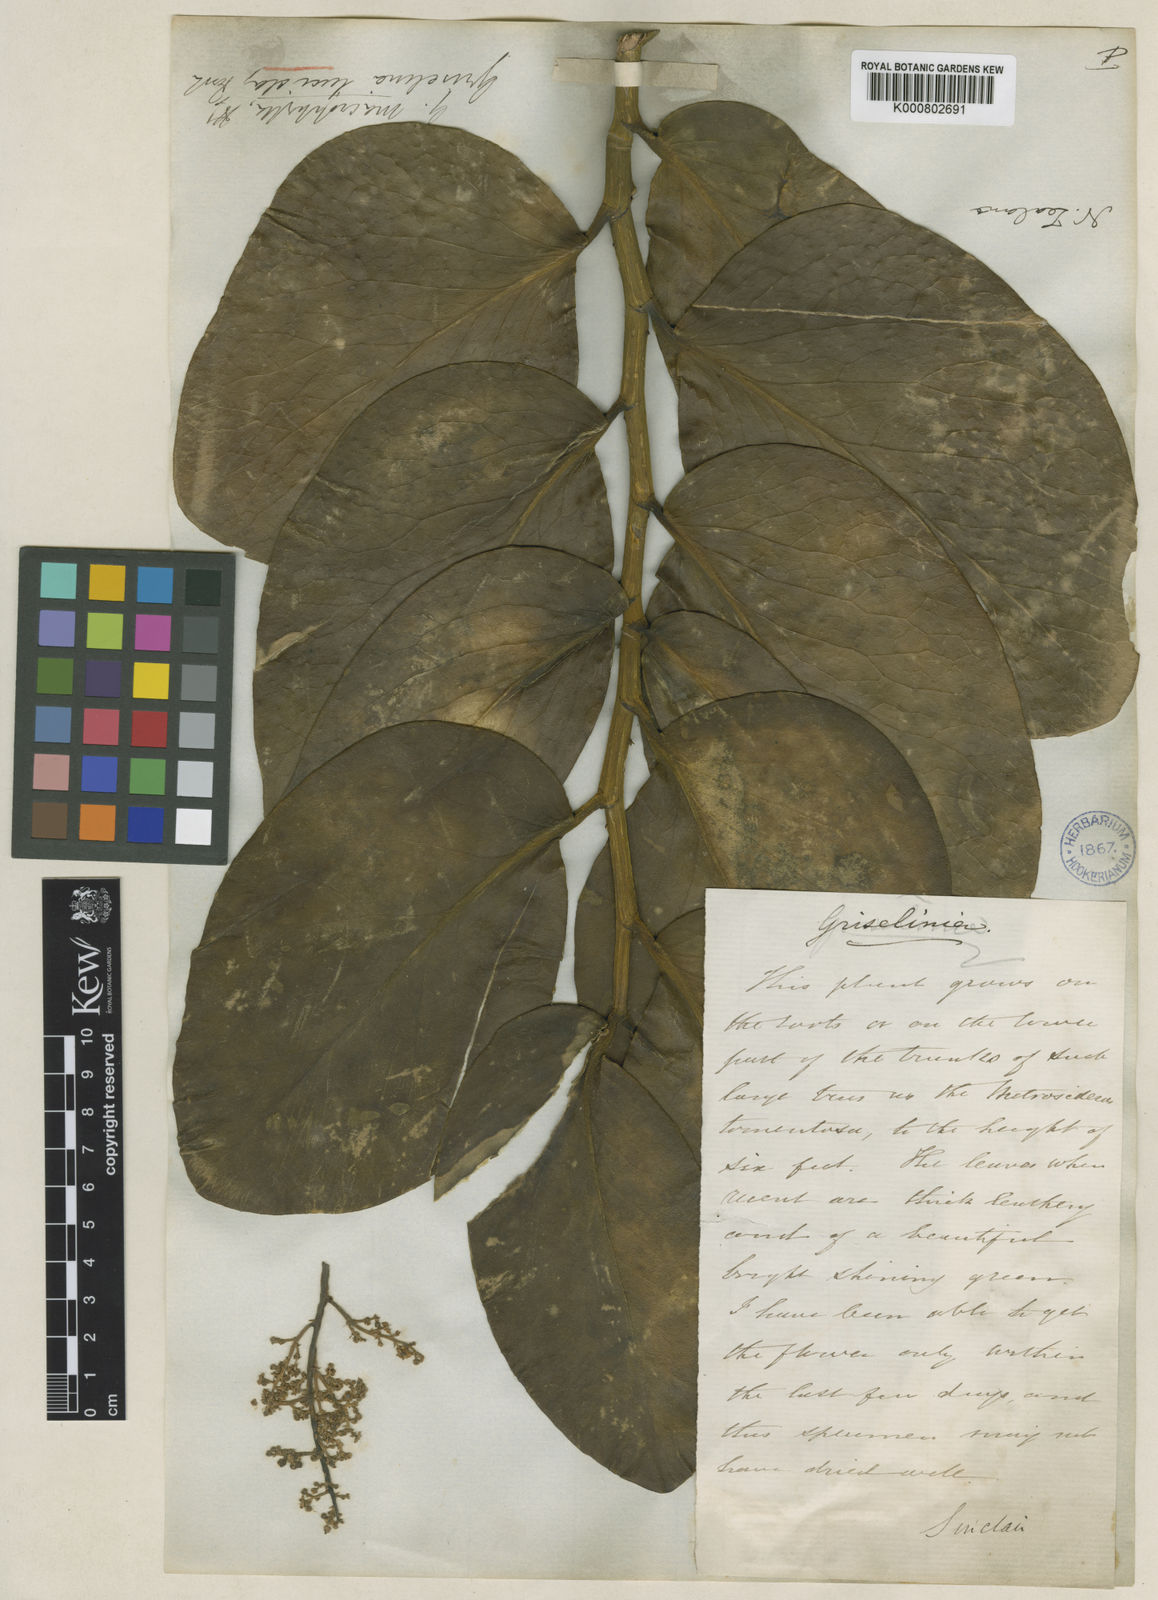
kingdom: Plantae
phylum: Tracheophyta
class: Magnoliopsida
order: Chloranthales
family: Chloranthaceae
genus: Ascarina
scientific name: Ascarina lucida
